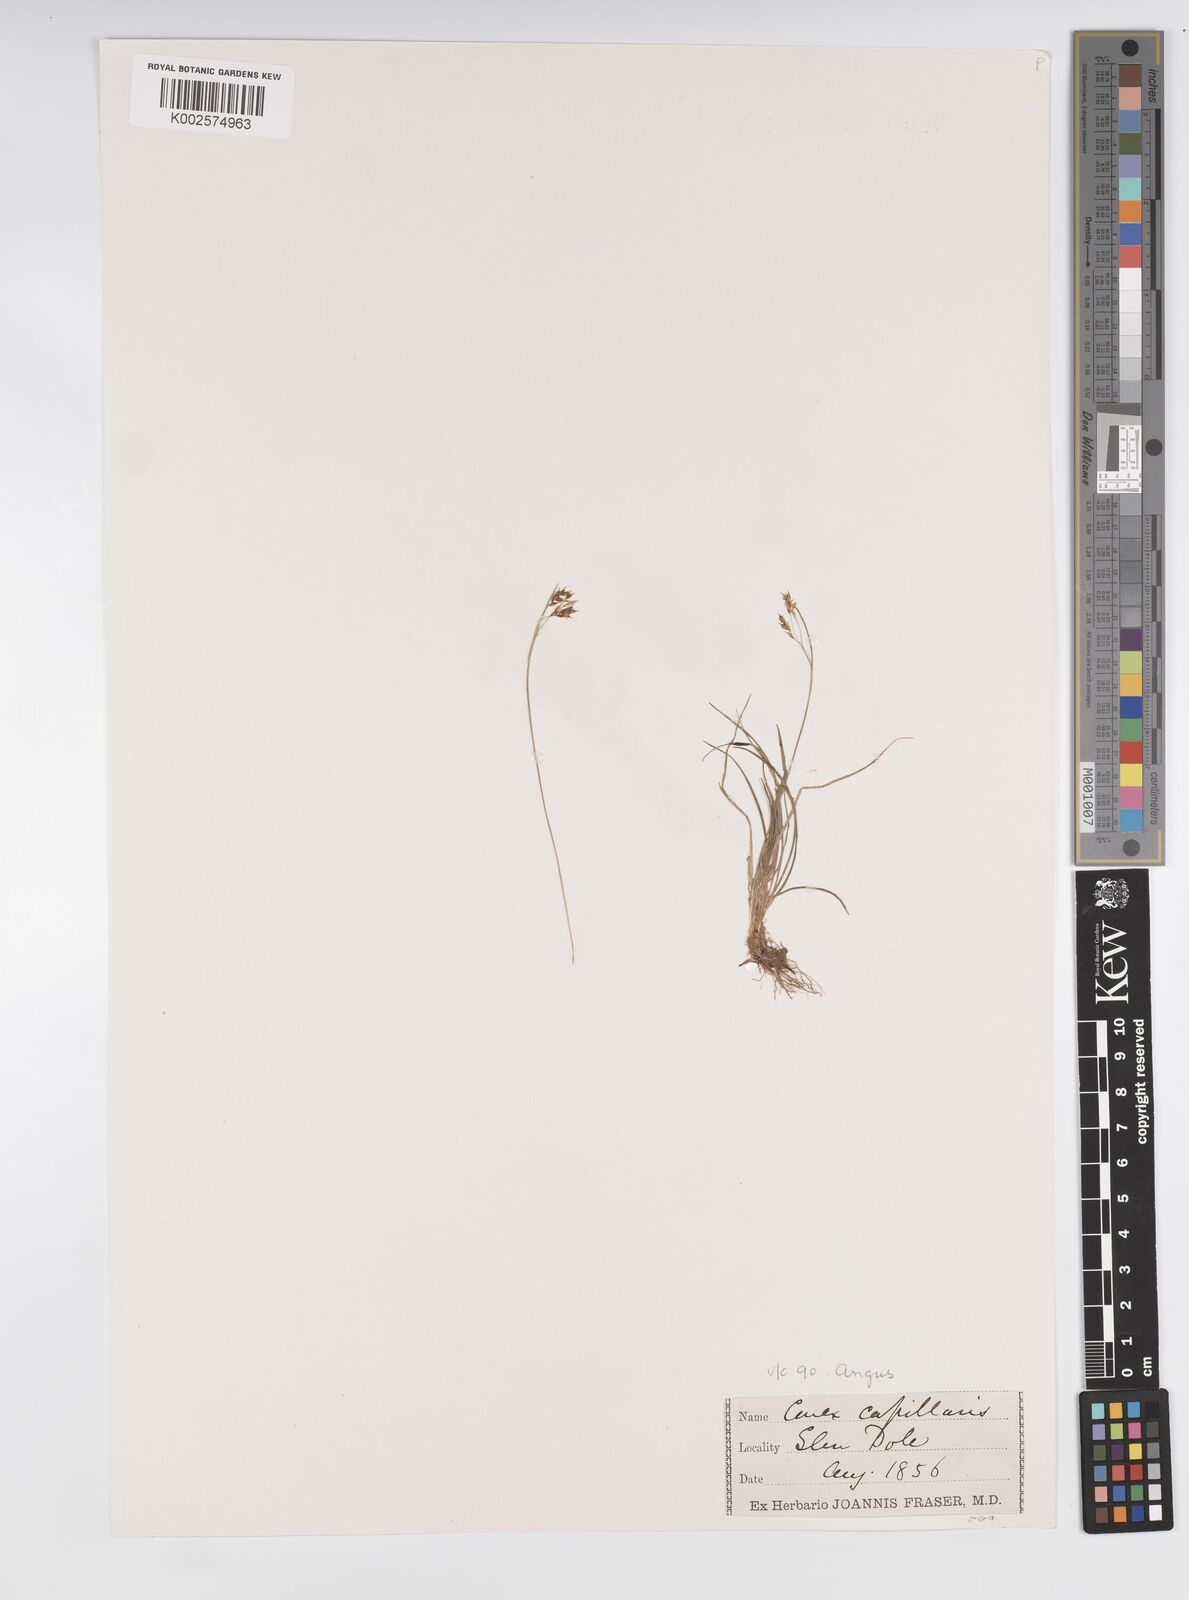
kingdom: Plantae
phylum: Tracheophyta
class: Liliopsida
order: Poales
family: Cyperaceae
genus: Carex
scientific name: Carex capillaris
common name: Hair sedge
